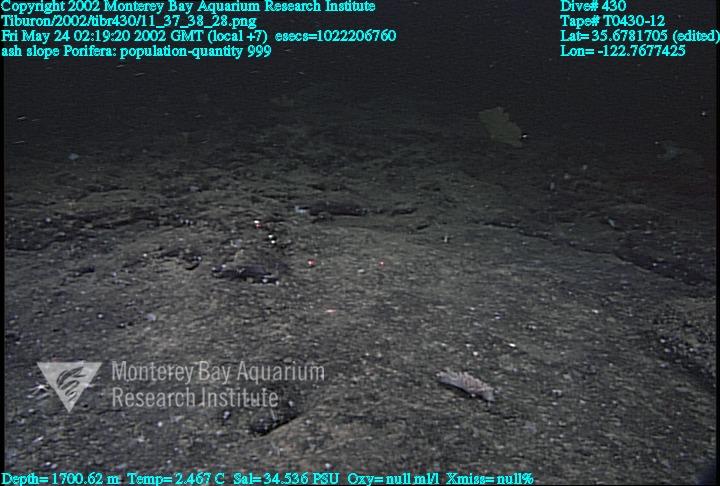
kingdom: Animalia
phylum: Porifera
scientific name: Porifera
